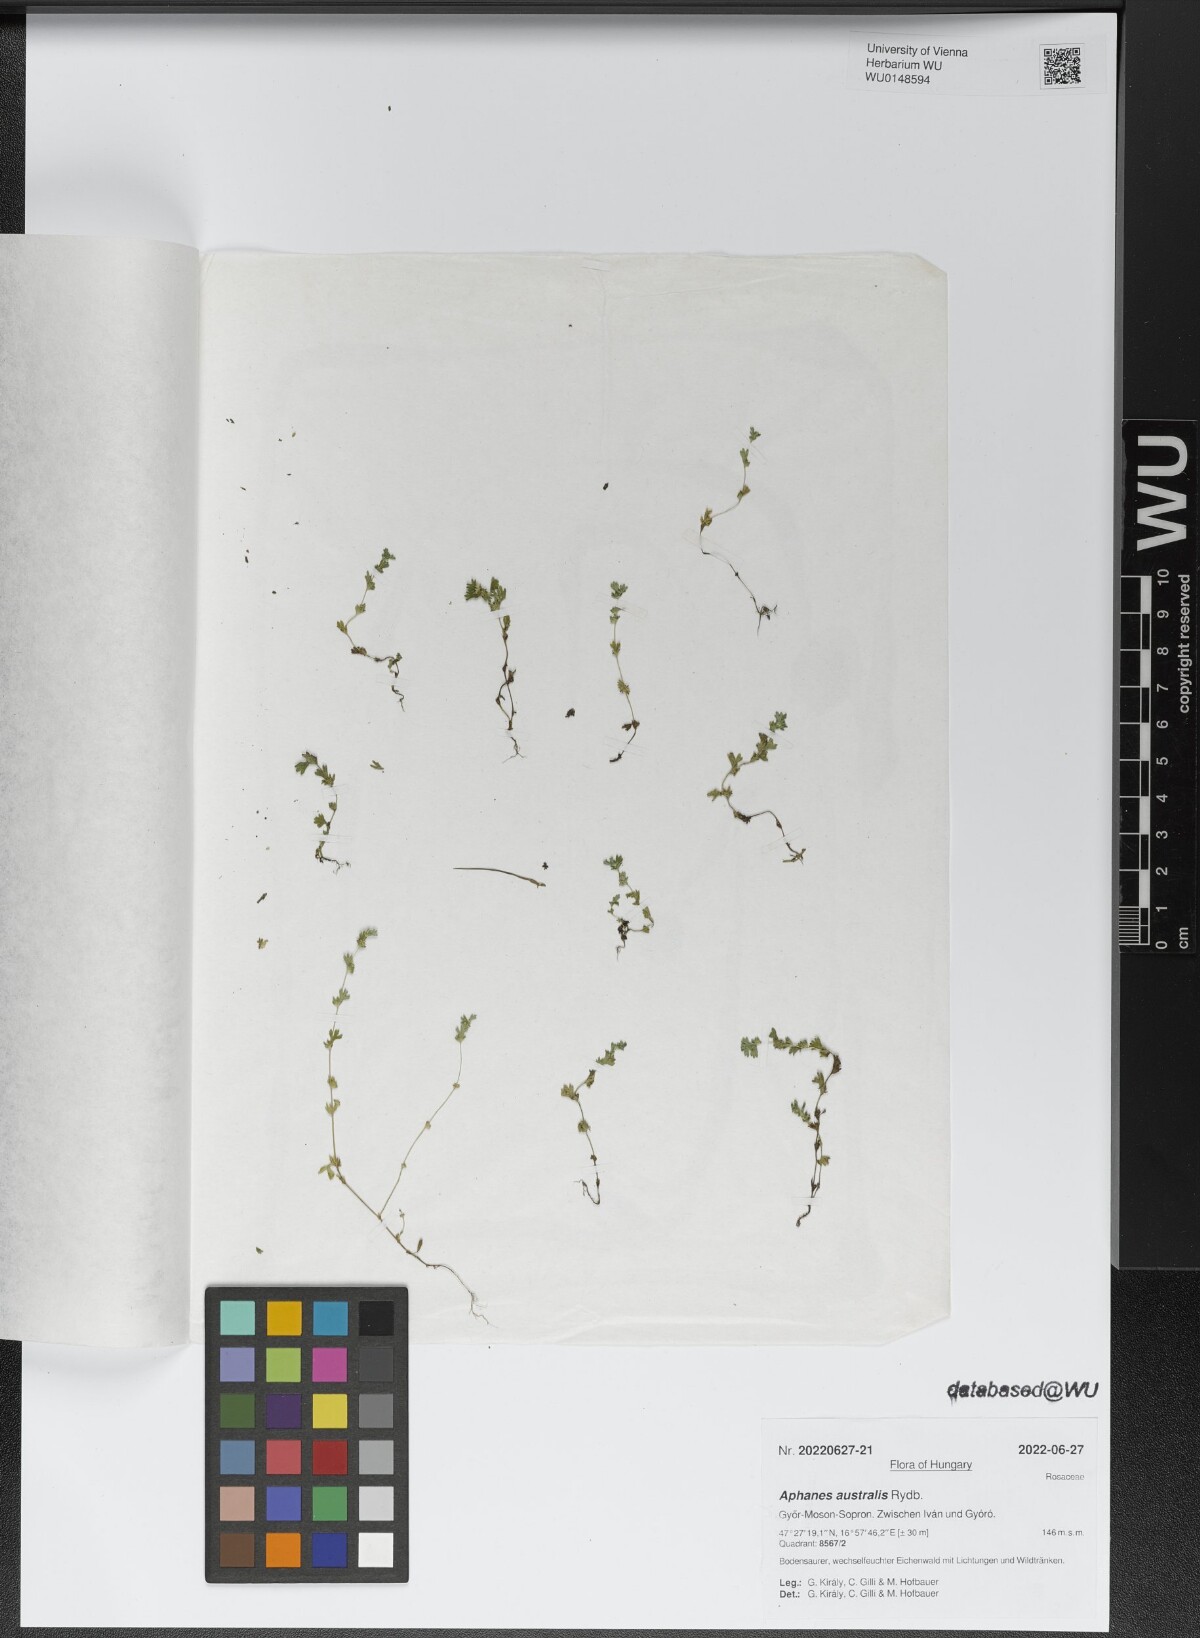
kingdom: Plantae
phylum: Tracheophyta
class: Magnoliopsida
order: Rosales
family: Rosaceae
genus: Aphanes
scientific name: Aphanes australis
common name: Slender parsley-piert
